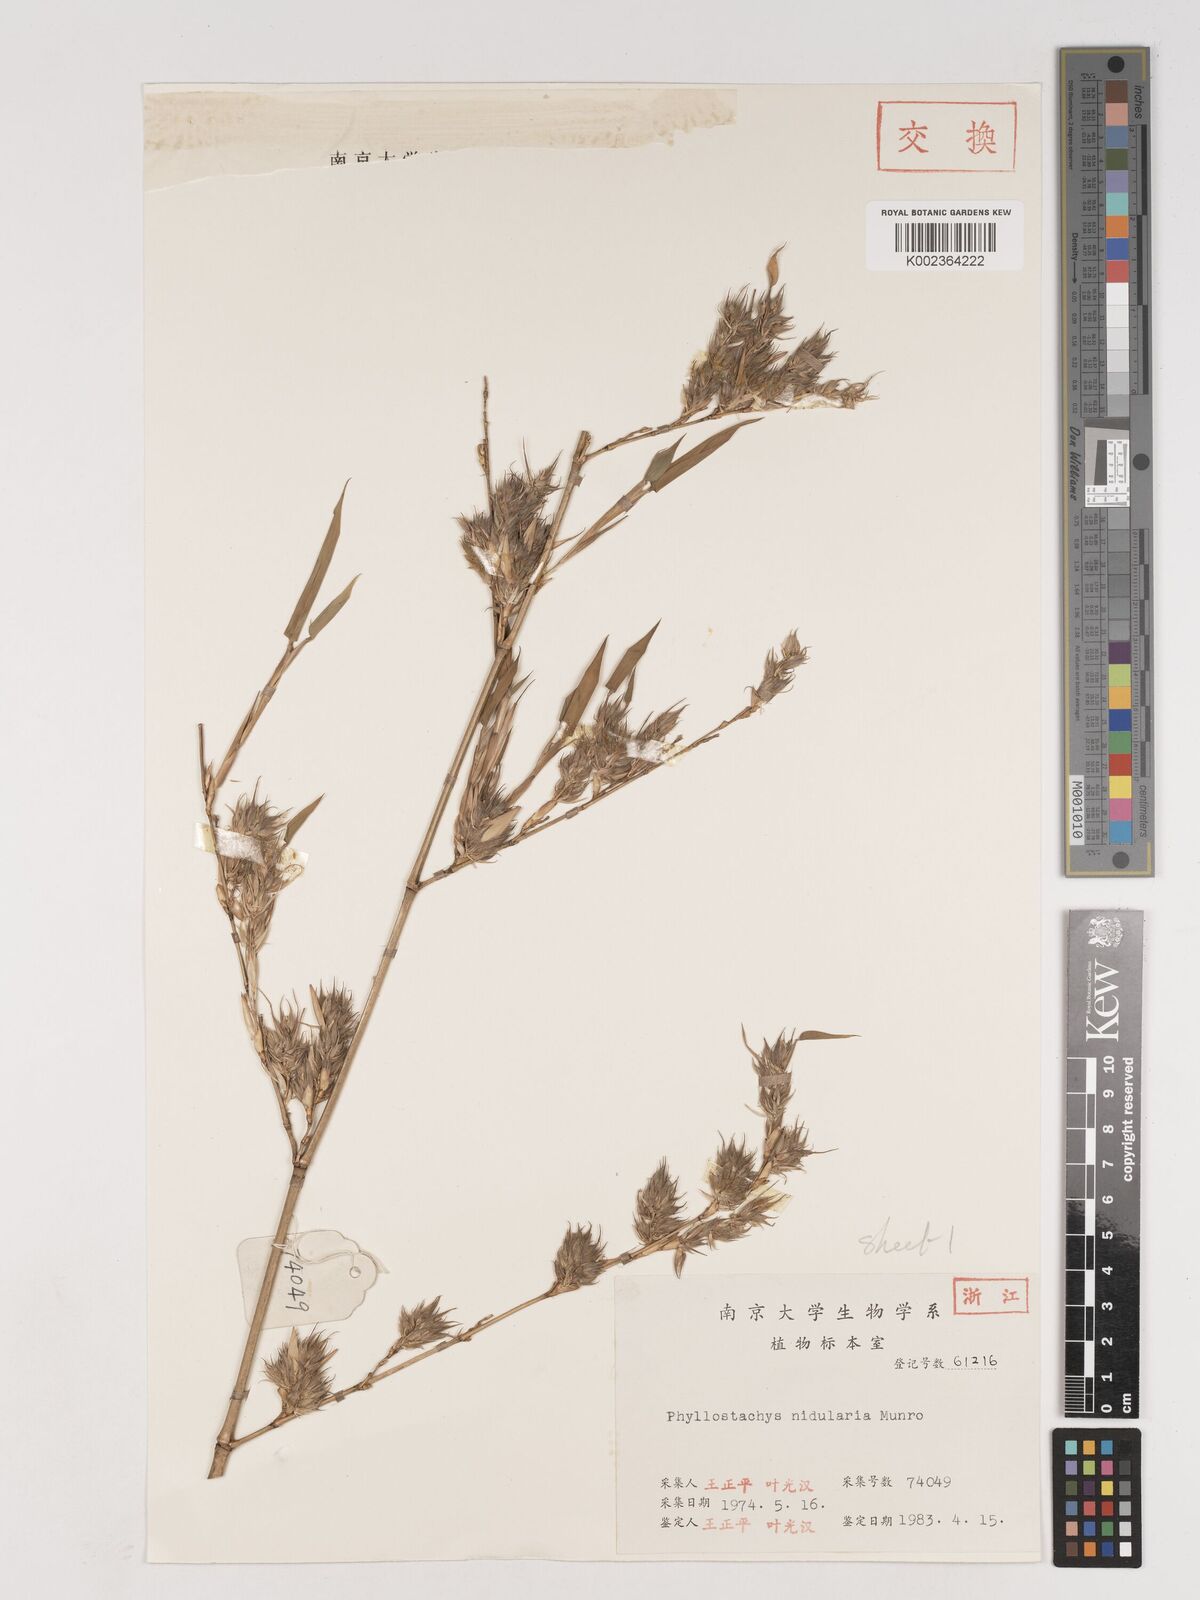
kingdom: Plantae
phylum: Tracheophyta
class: Liliopsida
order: Poales
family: Poaceae
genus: Phyllostachys
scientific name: Phyllostachys nidularia
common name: Broom bamboo
